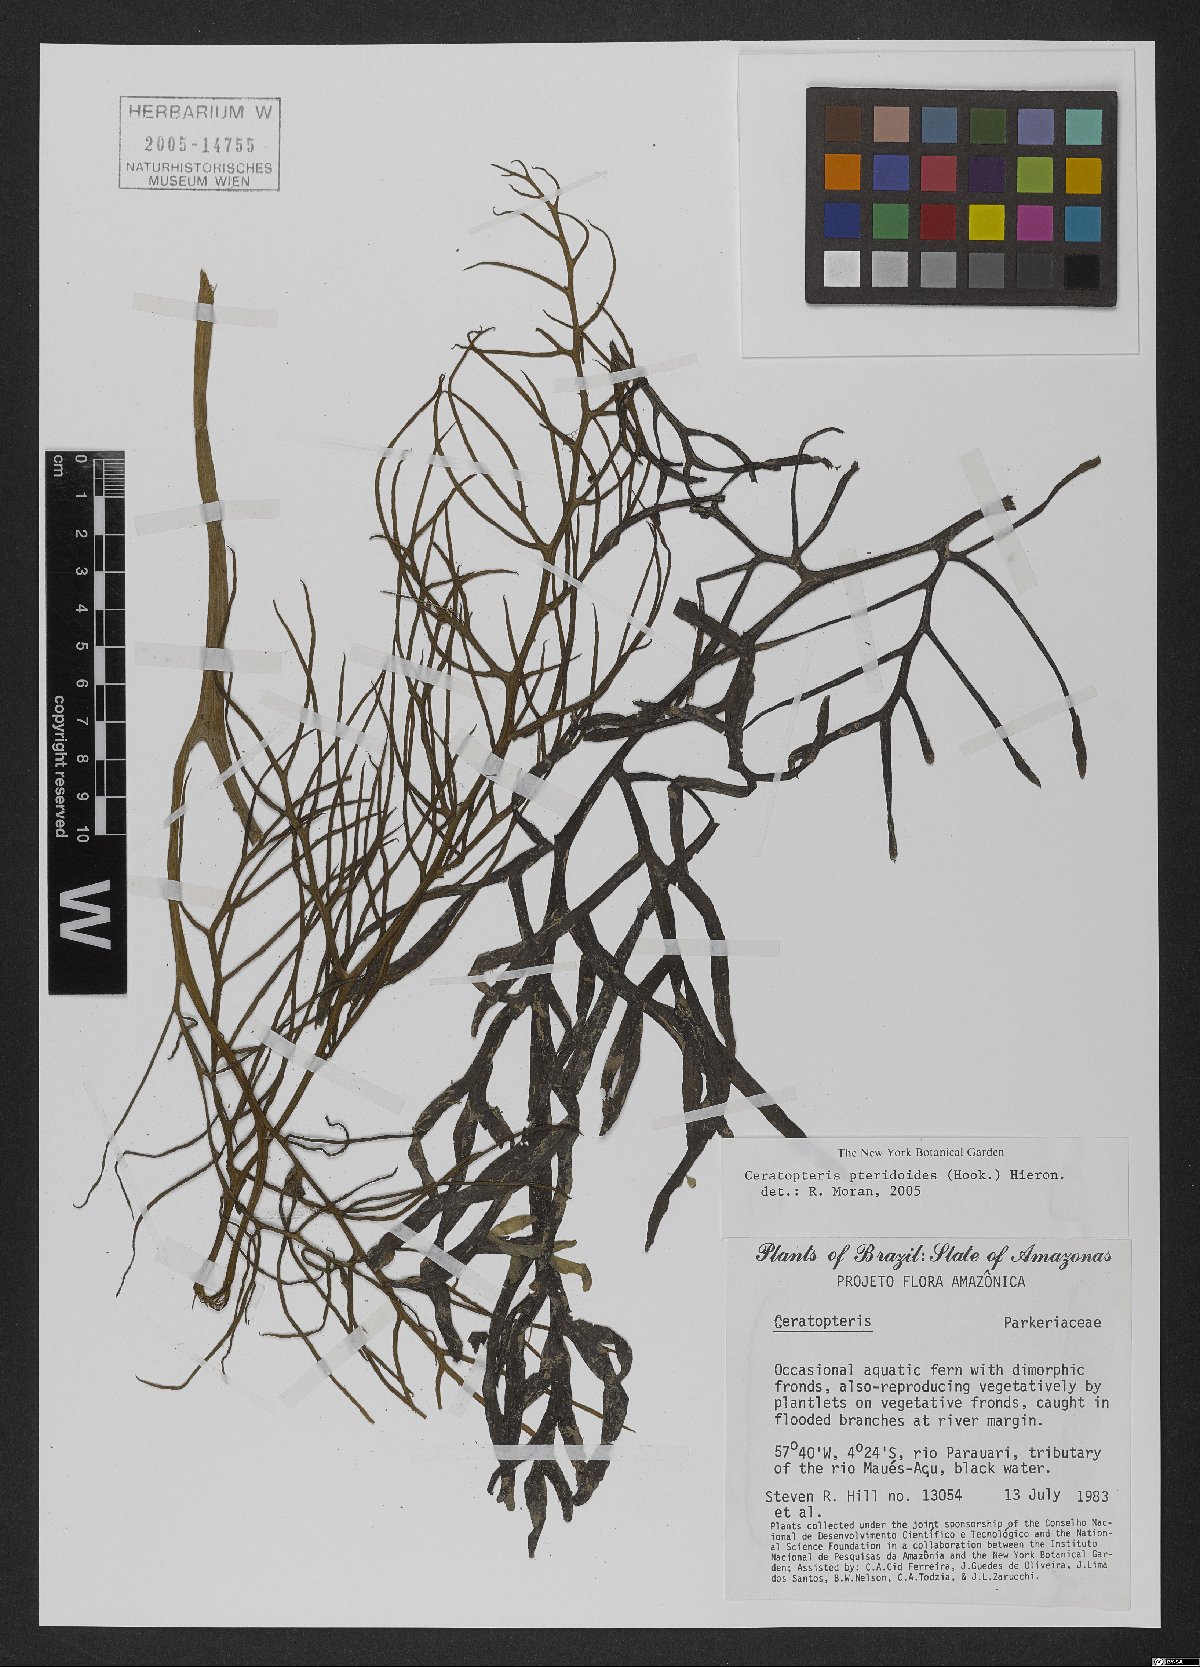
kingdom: Plantae
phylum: Tracheophyta
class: Polypodiopsida
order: Polypodiales
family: Pteridaceae
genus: Ceratopteris
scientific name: Ceratopteris pteridoides
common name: Floating fern
